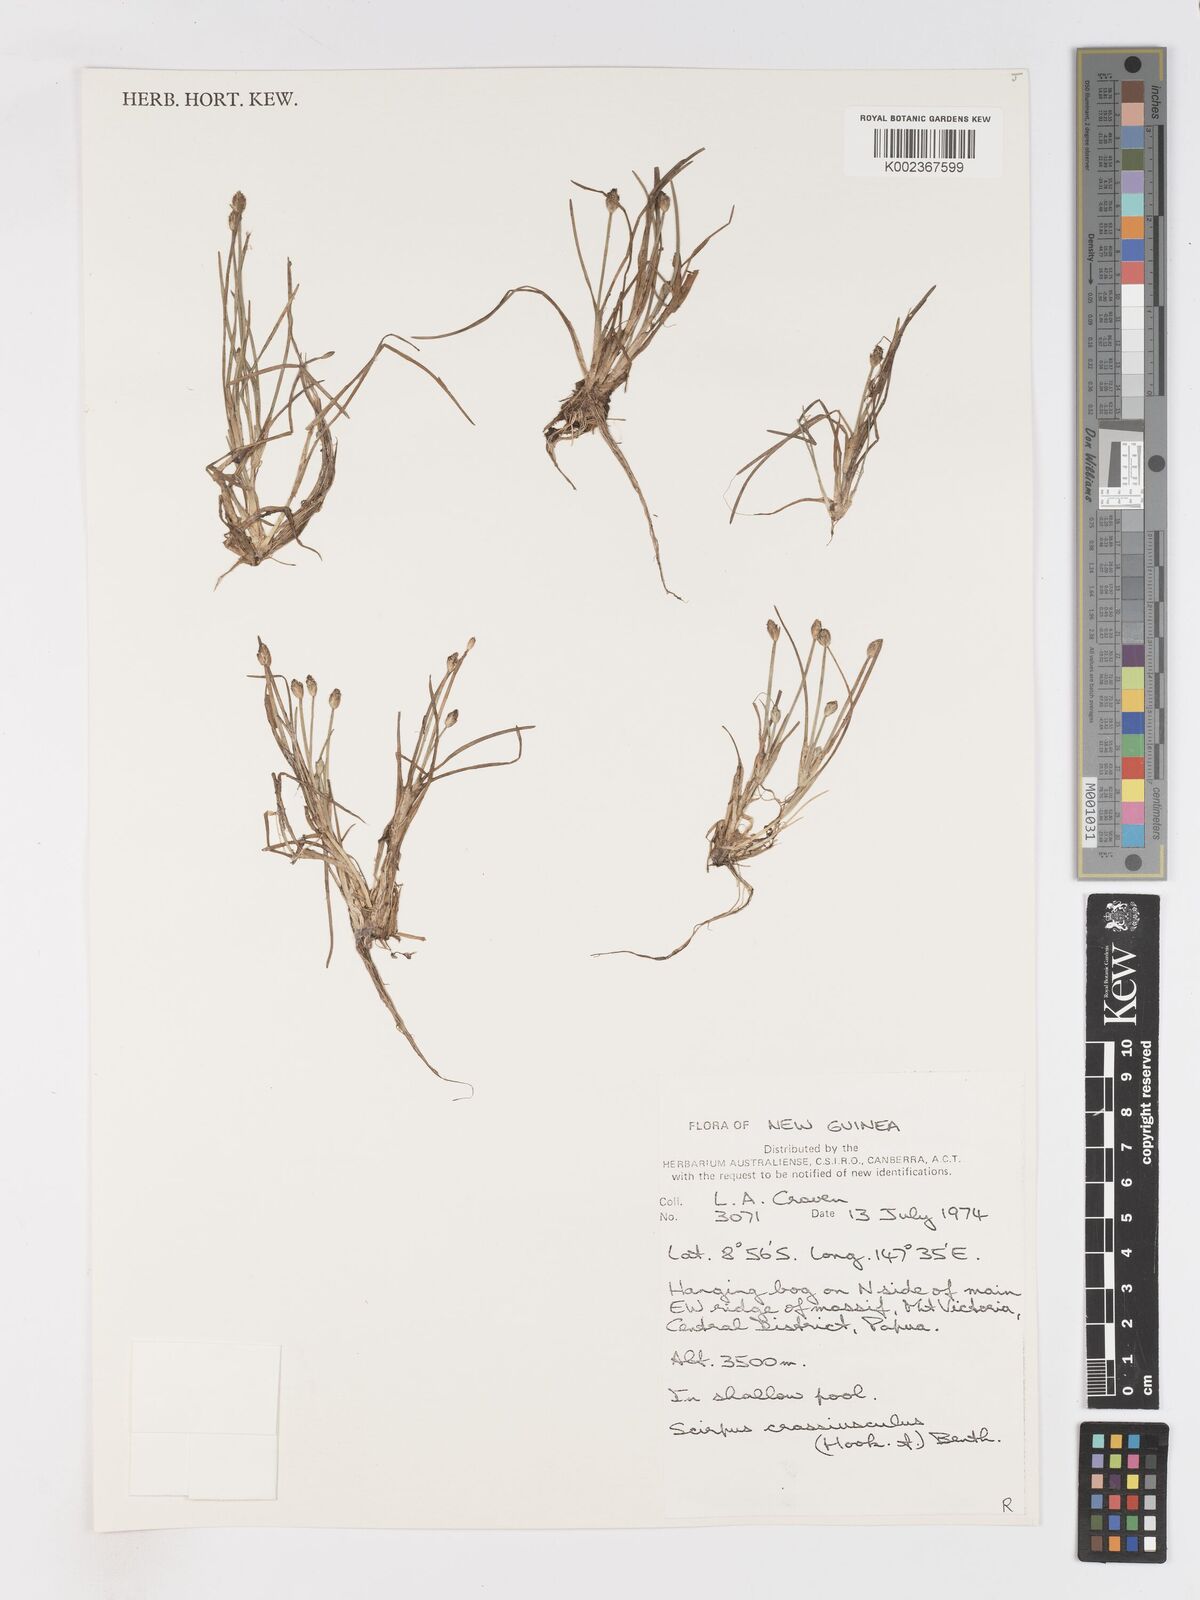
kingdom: Plantae
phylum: Tracheophyta
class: Liliopsida
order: Poales
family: Cyperaceae
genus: Isolepis
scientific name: Isolepis crassiuscula
